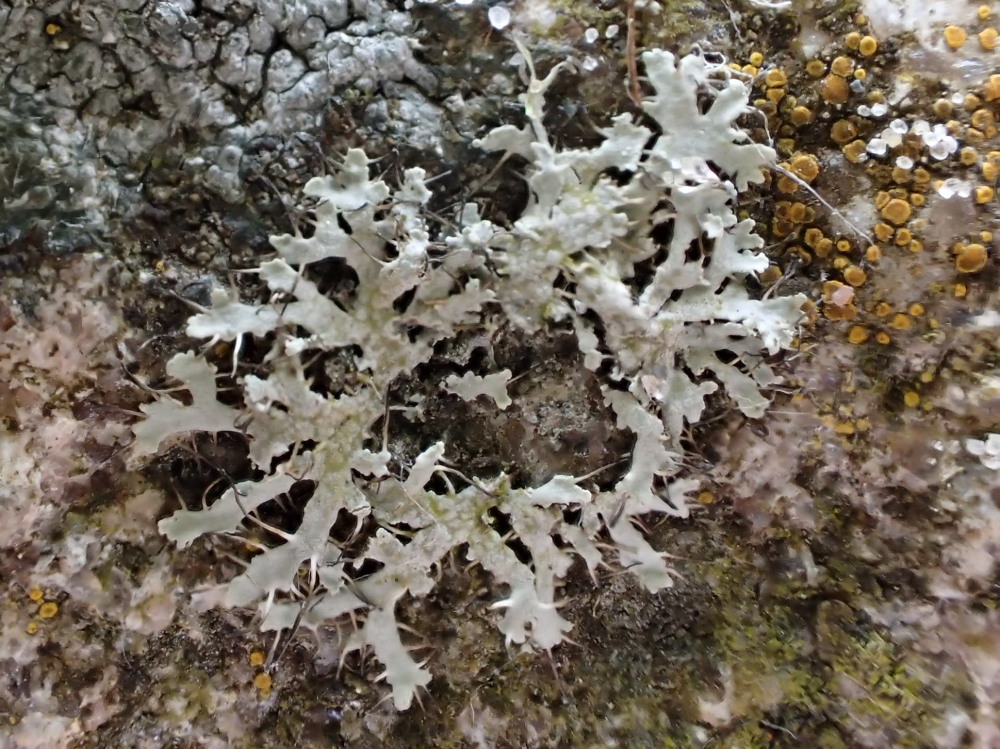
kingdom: Fungi
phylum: Ascomycota
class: Lecanoromycetes
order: Caliciales
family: Physciaceae
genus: Physcia
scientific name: Physcia tenella
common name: spæd rosetlav
